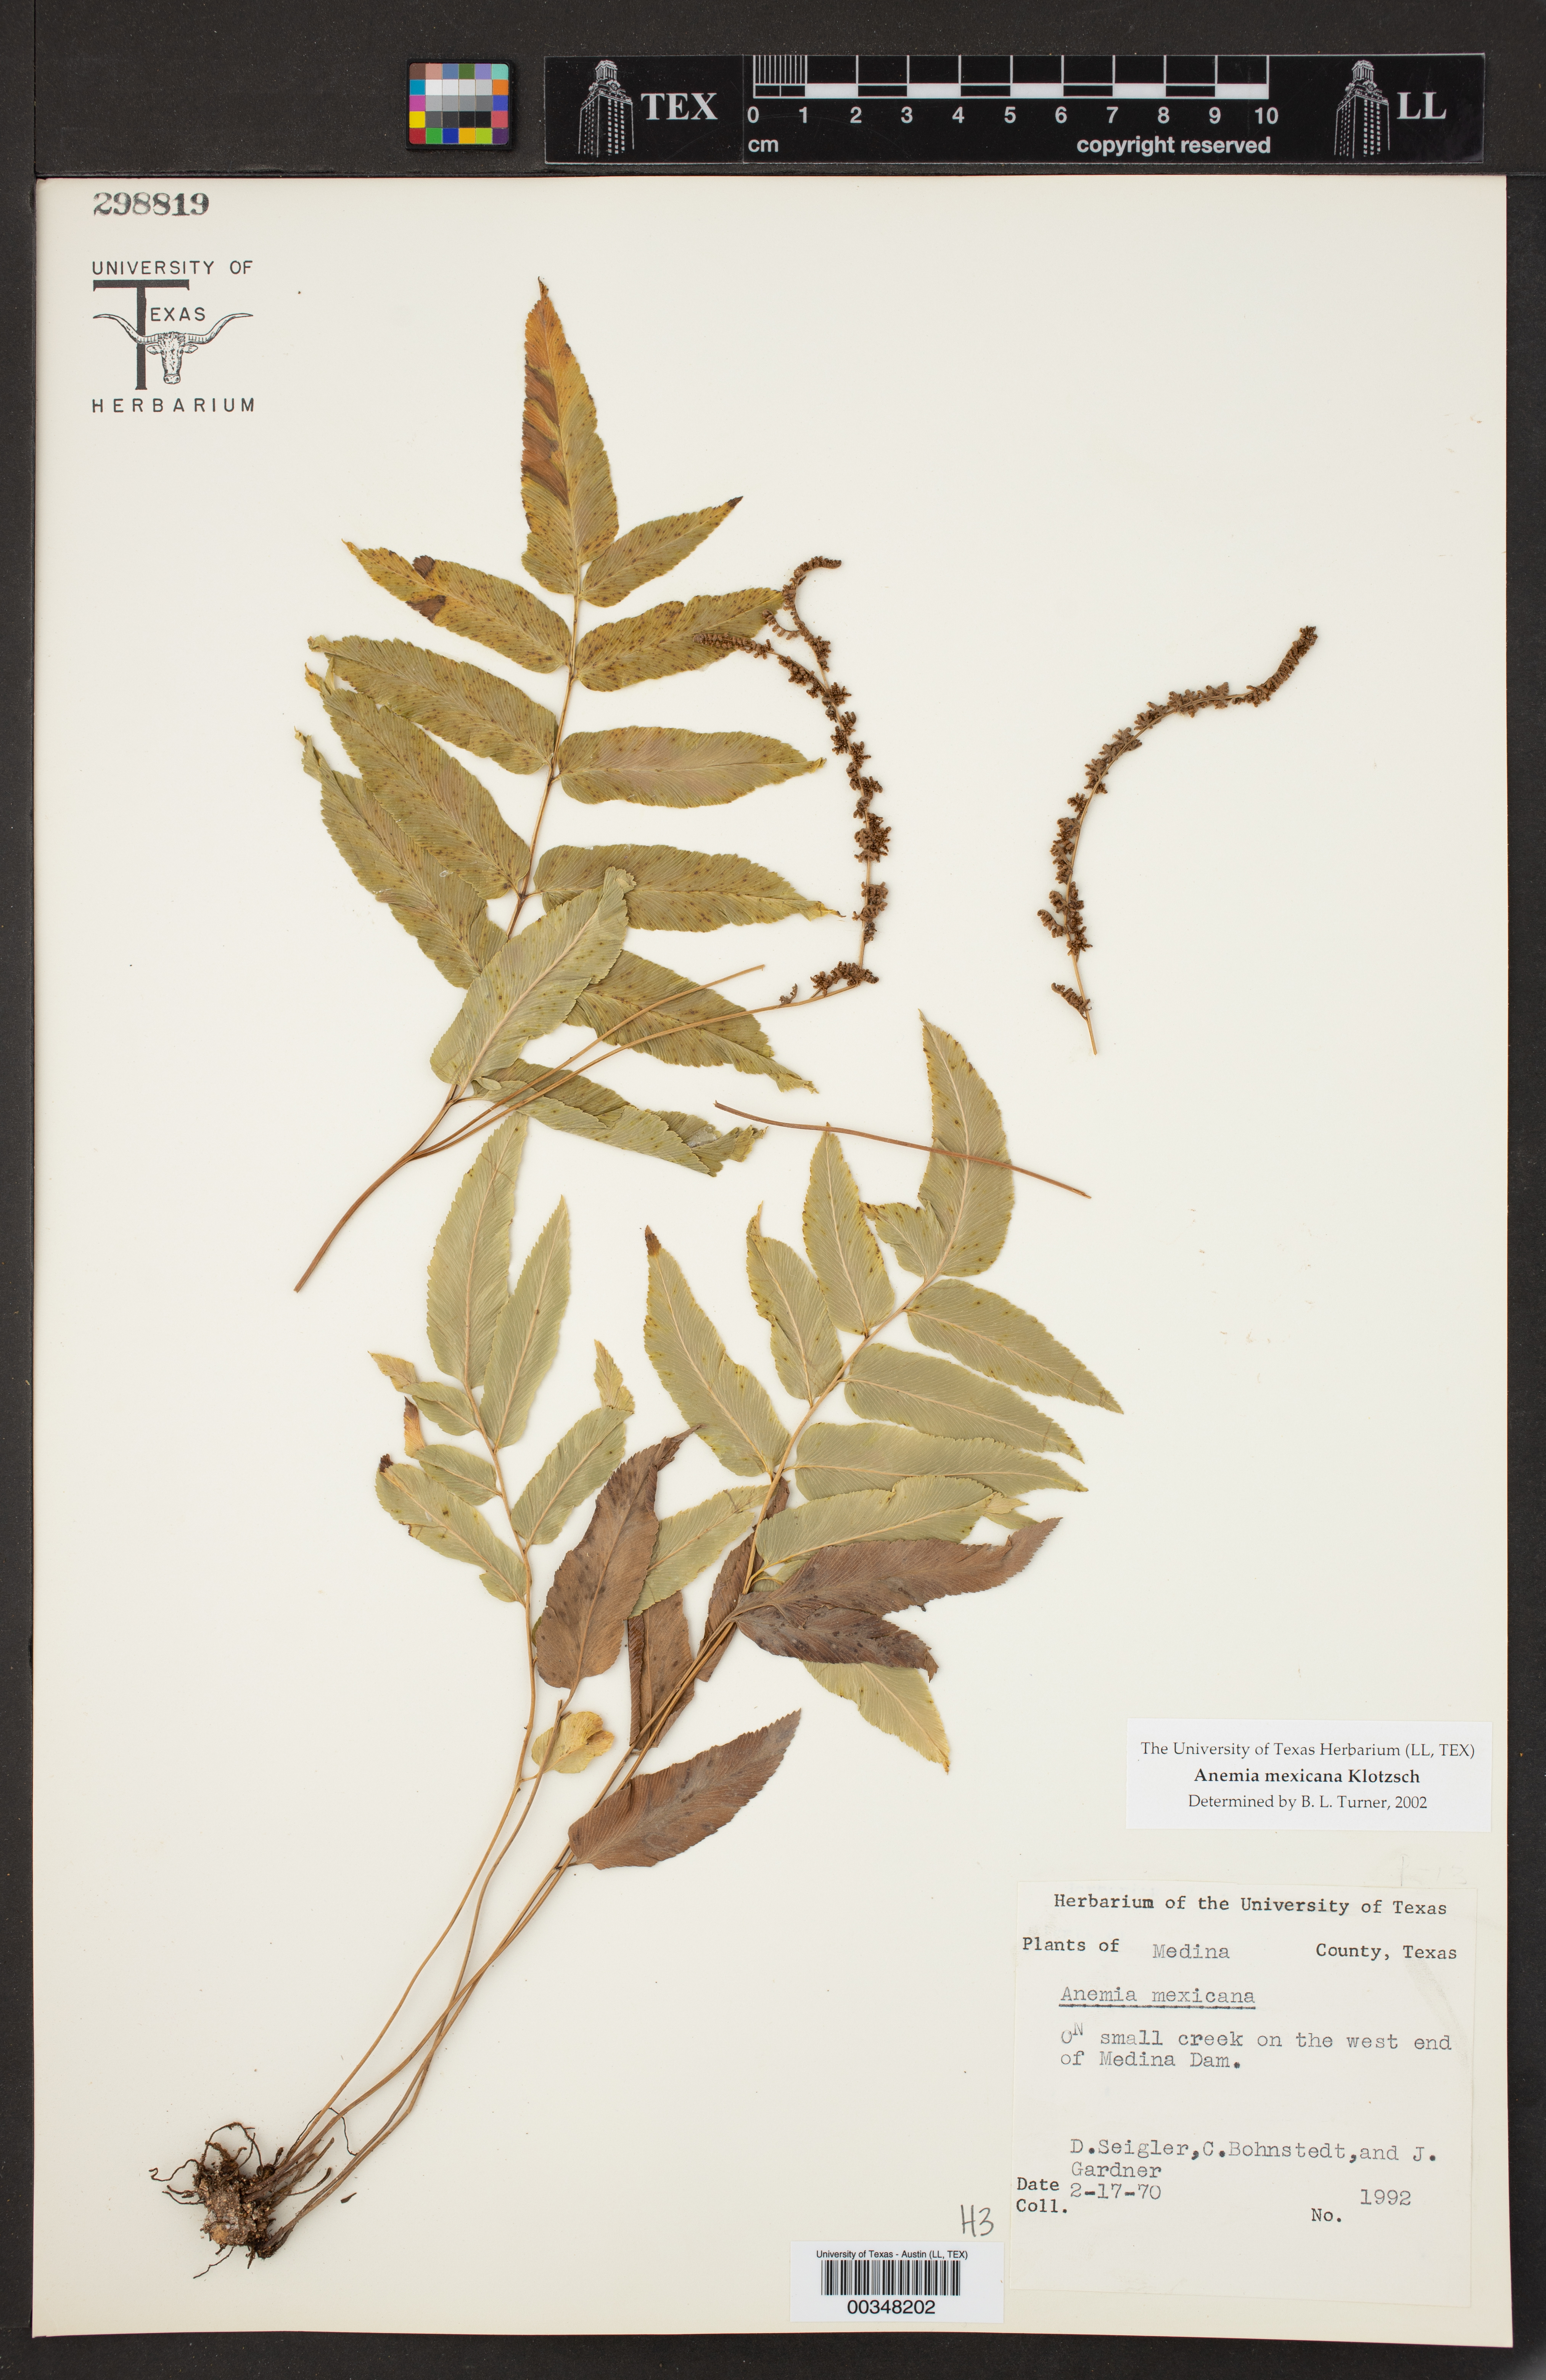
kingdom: Plantae
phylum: Tracheophyta
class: Polypodiopsida
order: Schizaeales
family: Anemiaceae
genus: Anemia
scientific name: Anemia mexicana
